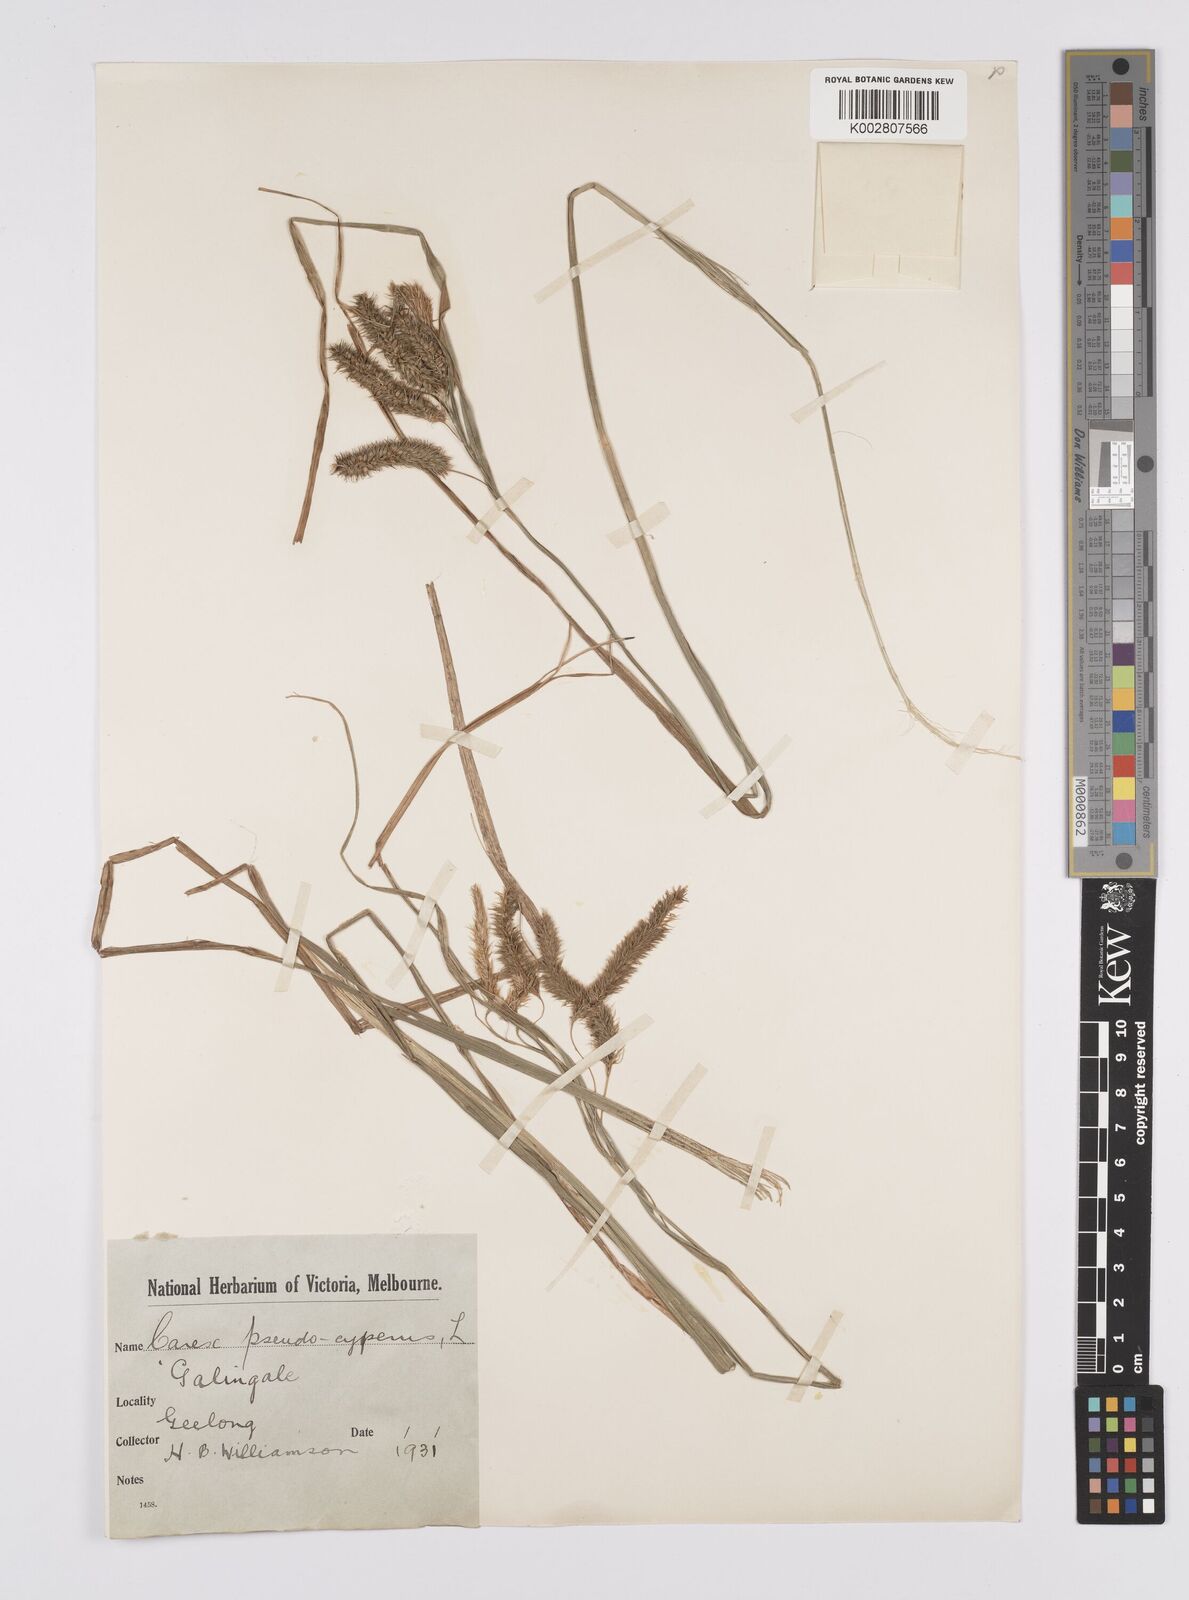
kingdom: Plantae
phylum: Tracheophyta
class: Liliopsida
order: Poales
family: Cyperaceae
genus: Carex
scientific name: Carex fascicularis
